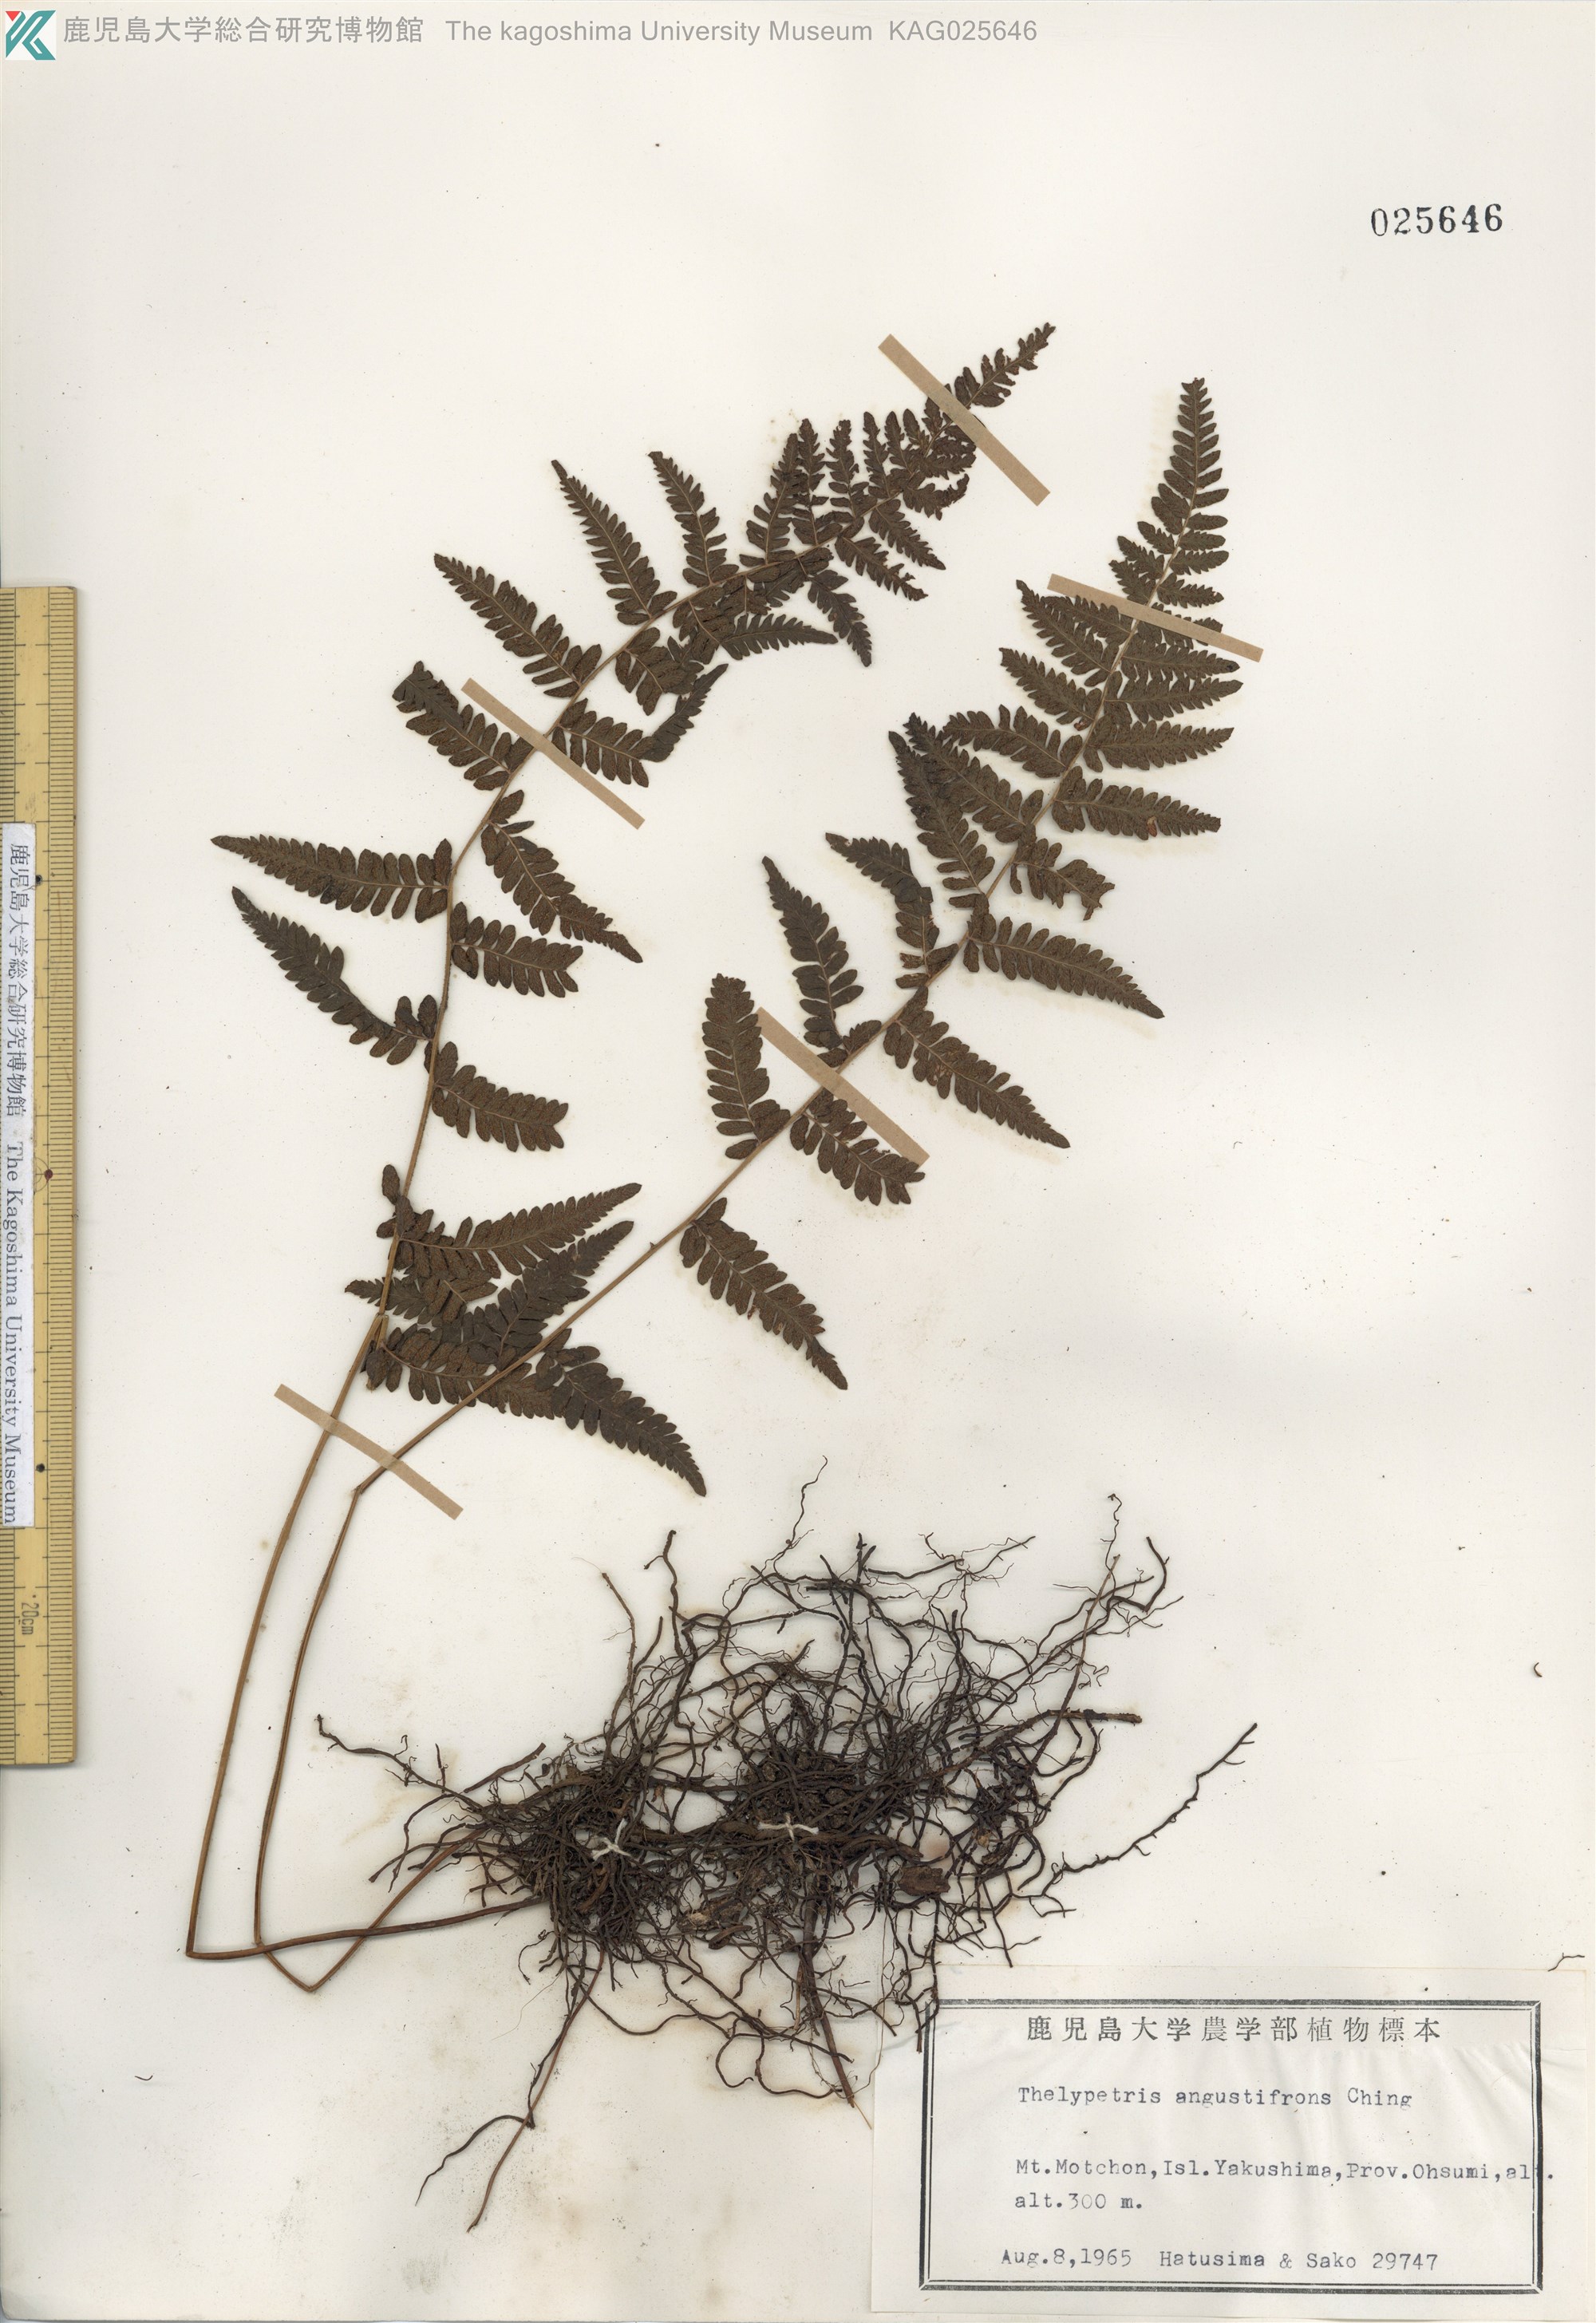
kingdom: Plantae
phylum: Tracheophyta
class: Polypodiopsida
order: Polypodiales
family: Thelypteridaceae
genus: Amauropelta
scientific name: Amauropelta angustifrons
